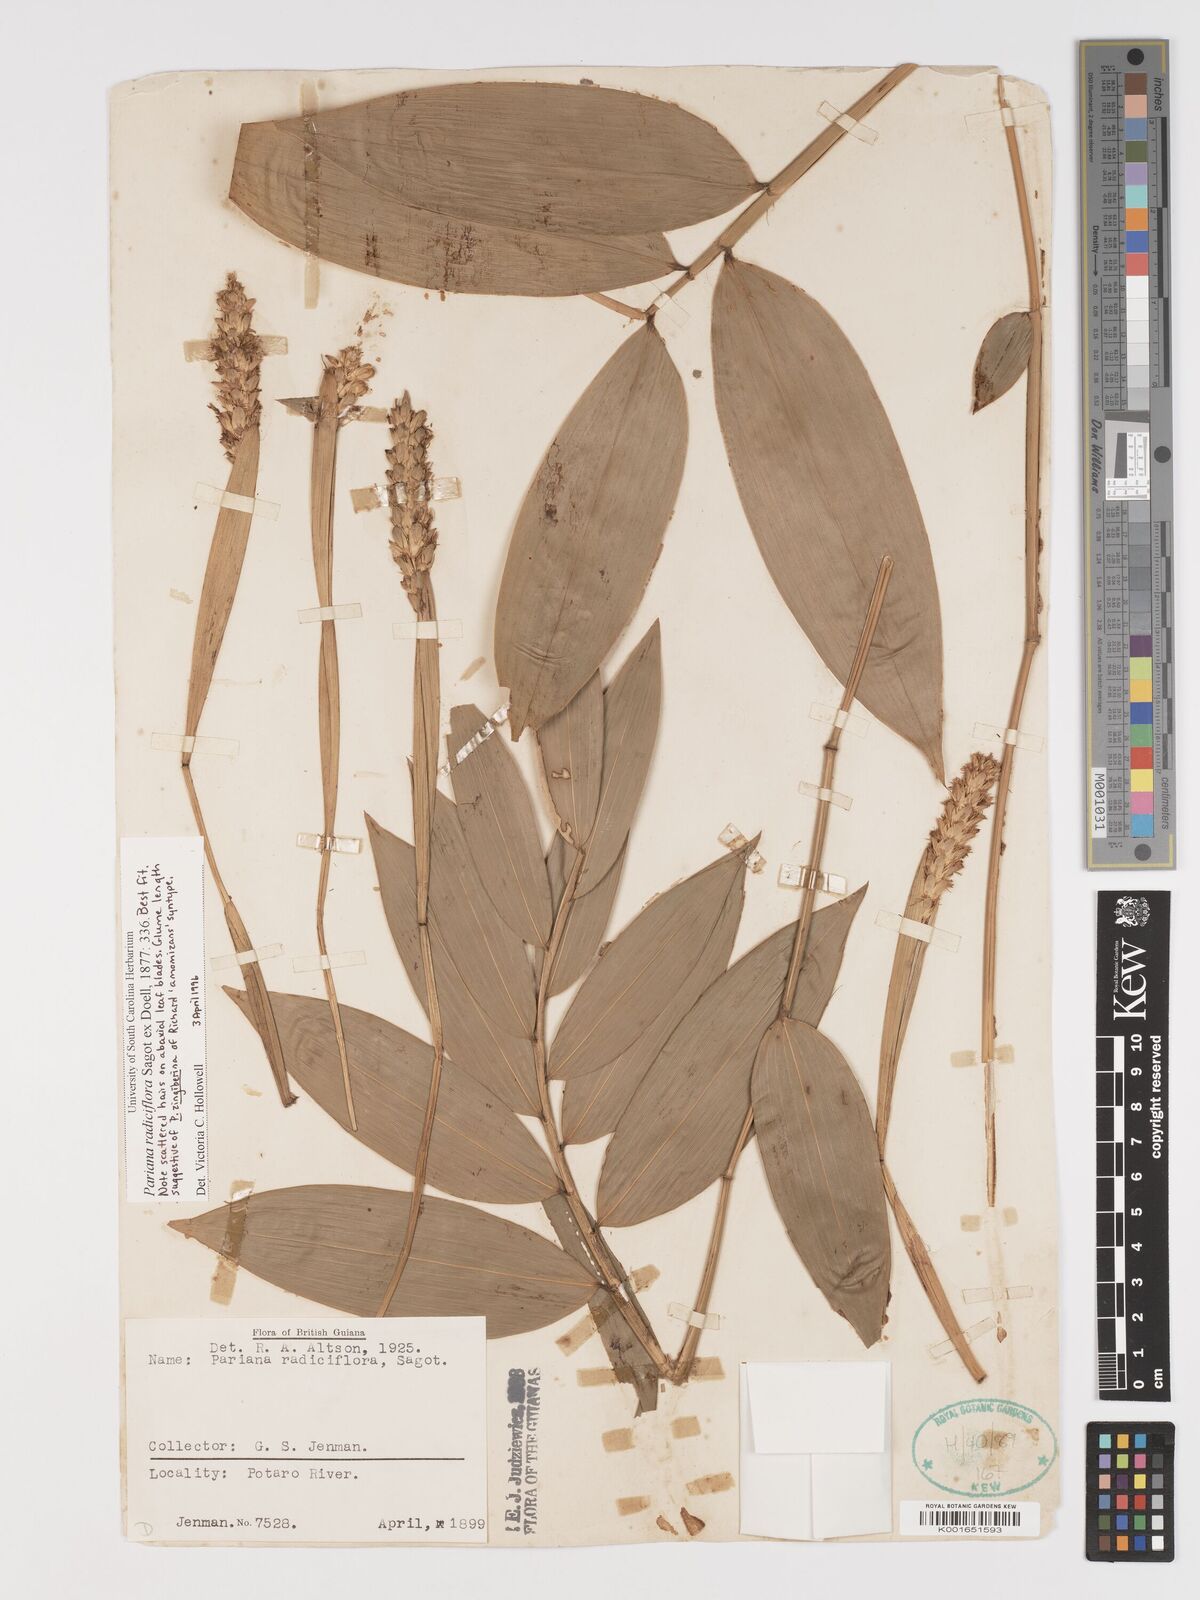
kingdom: Plantae
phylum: Tracheophyta
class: Liliopsida
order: Poales
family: Poaceae
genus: Pariana
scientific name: Pariana radiciflora
